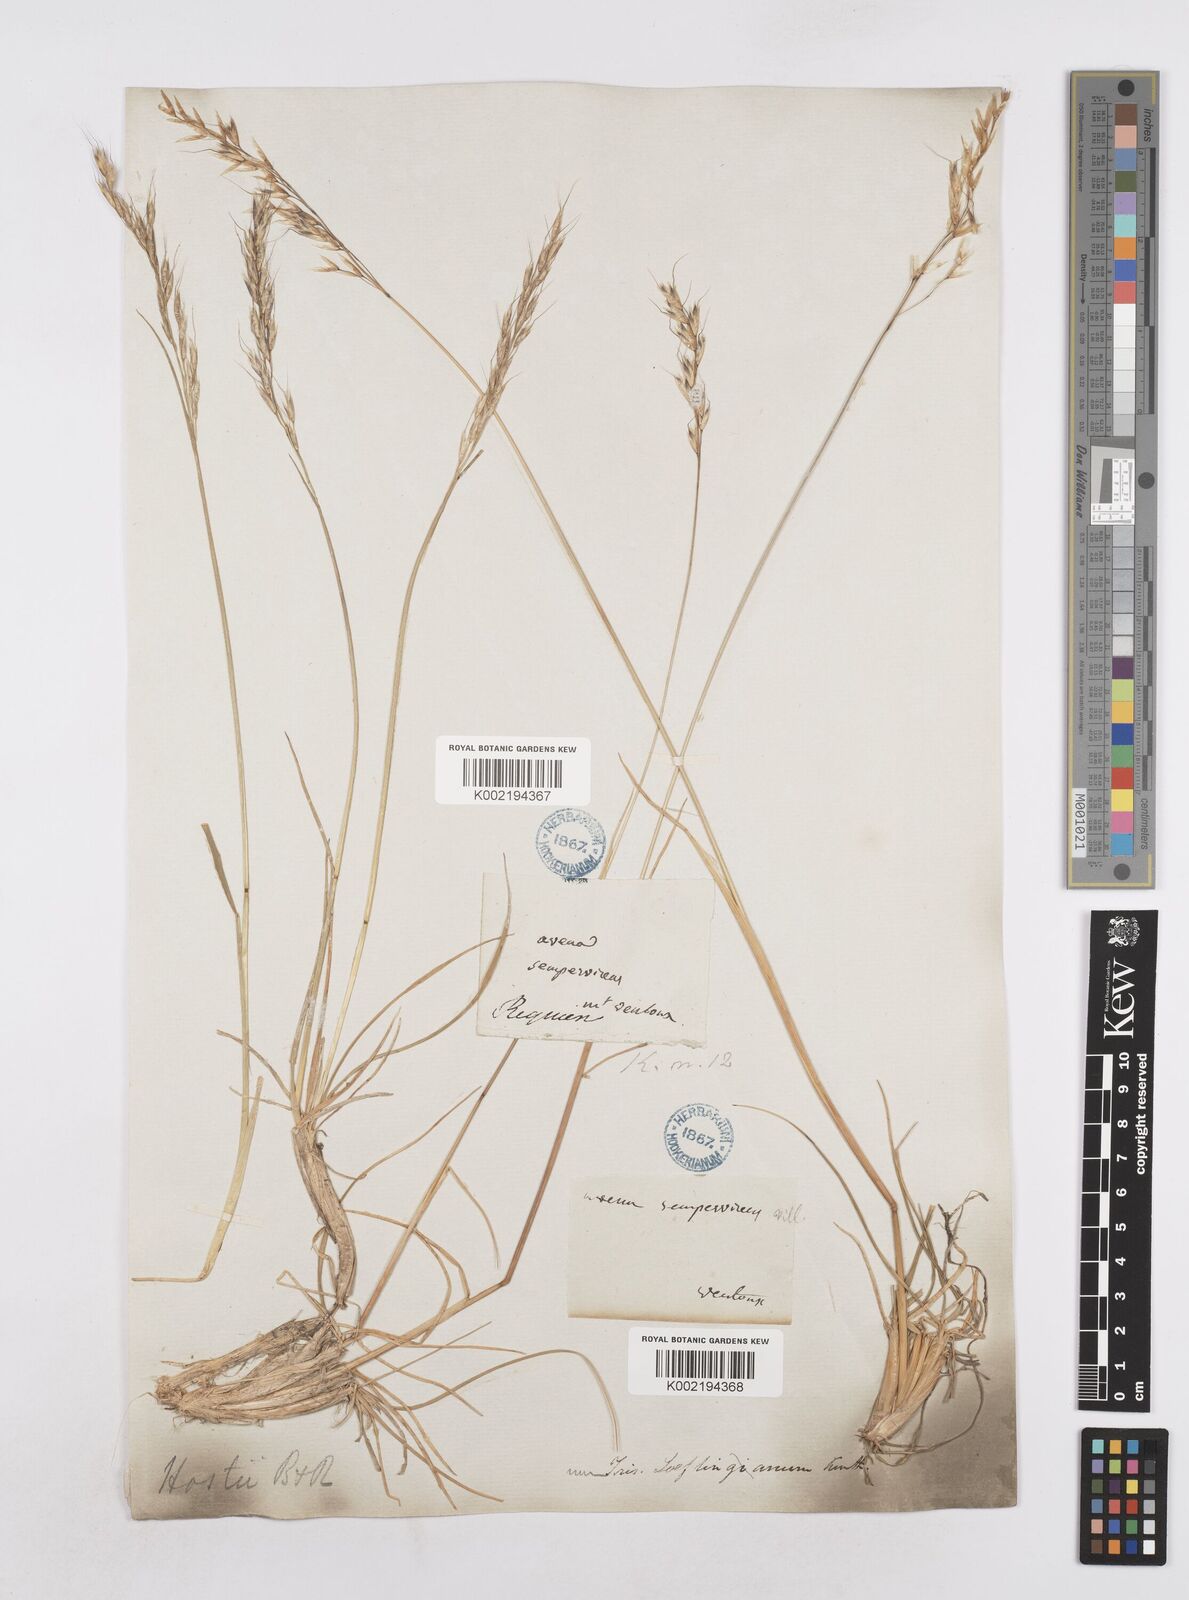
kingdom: Plantae
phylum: Tracheophyta
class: Liliopsida
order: Poales
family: Poaceae
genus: Helictotrichon
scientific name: Helictotrichon parlatorei
